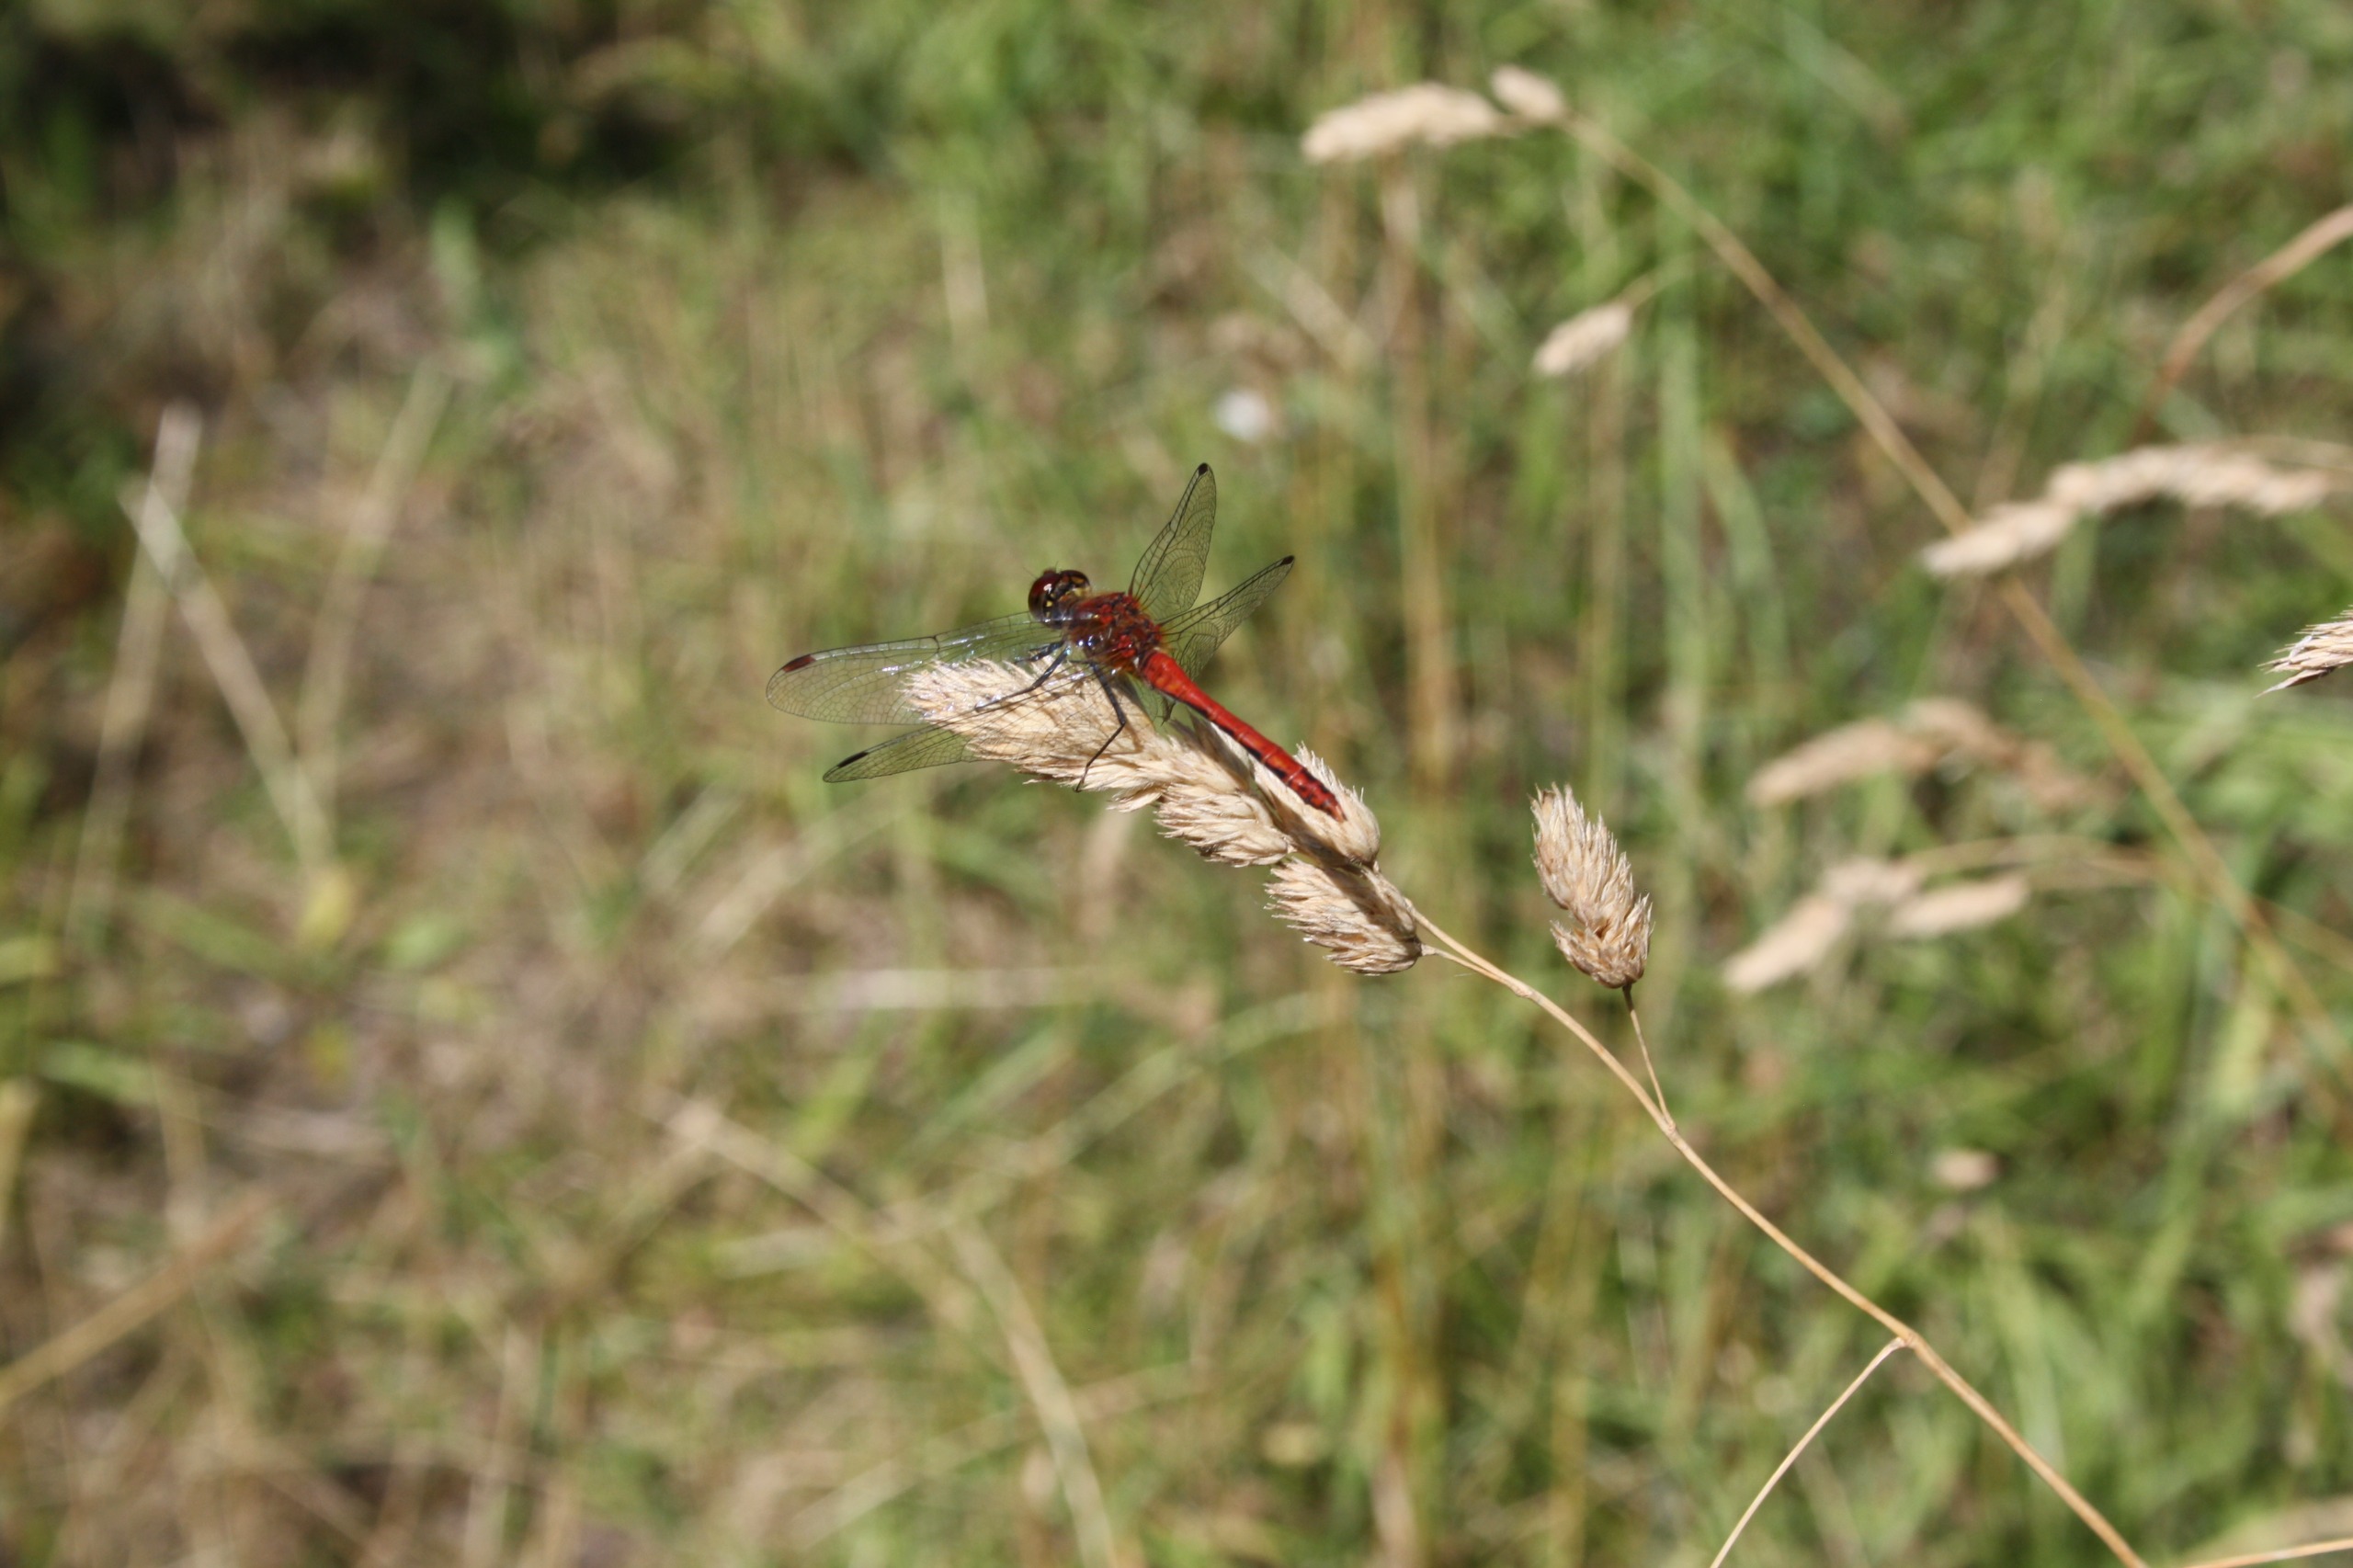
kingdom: Animalia
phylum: Arthropoda
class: Insecta
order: Odonata
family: Libellulidae
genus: Sympetrum
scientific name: Sympetrum sanguineum
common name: Blodrød hedelibel
